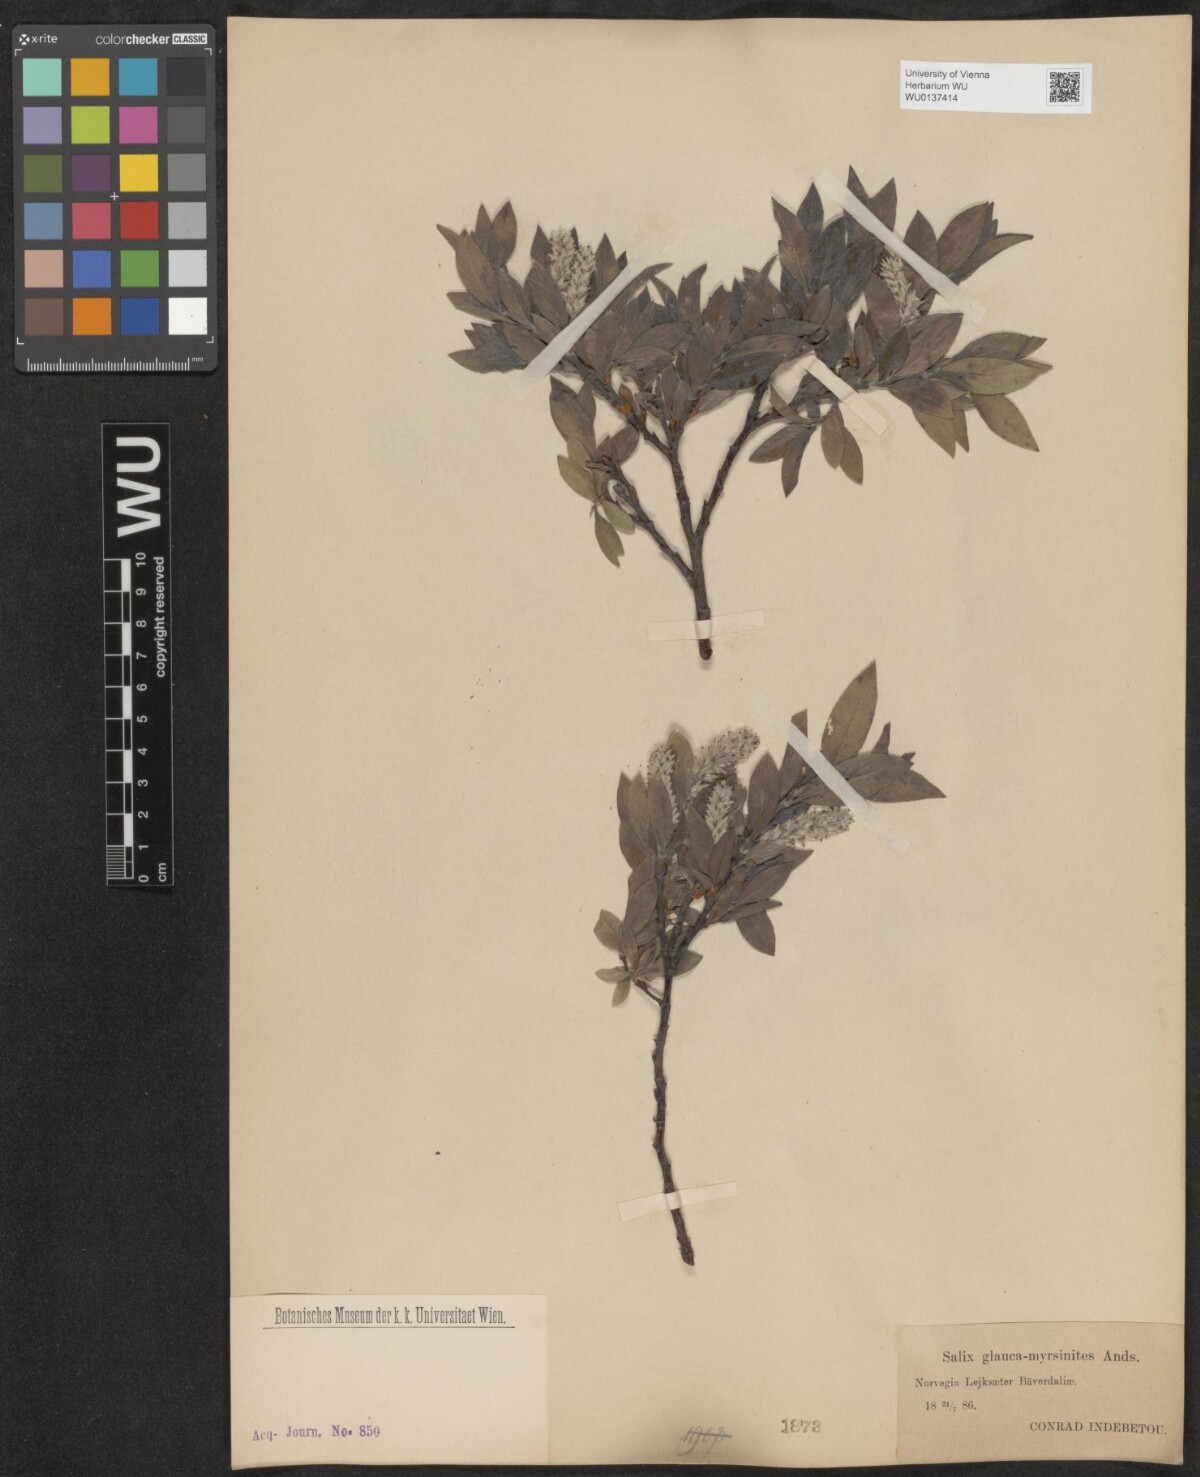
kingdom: Plantae
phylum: Tracheophyta
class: Magnoliopsida
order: Malpighiales
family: Salicaceae
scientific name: Salicaceae
